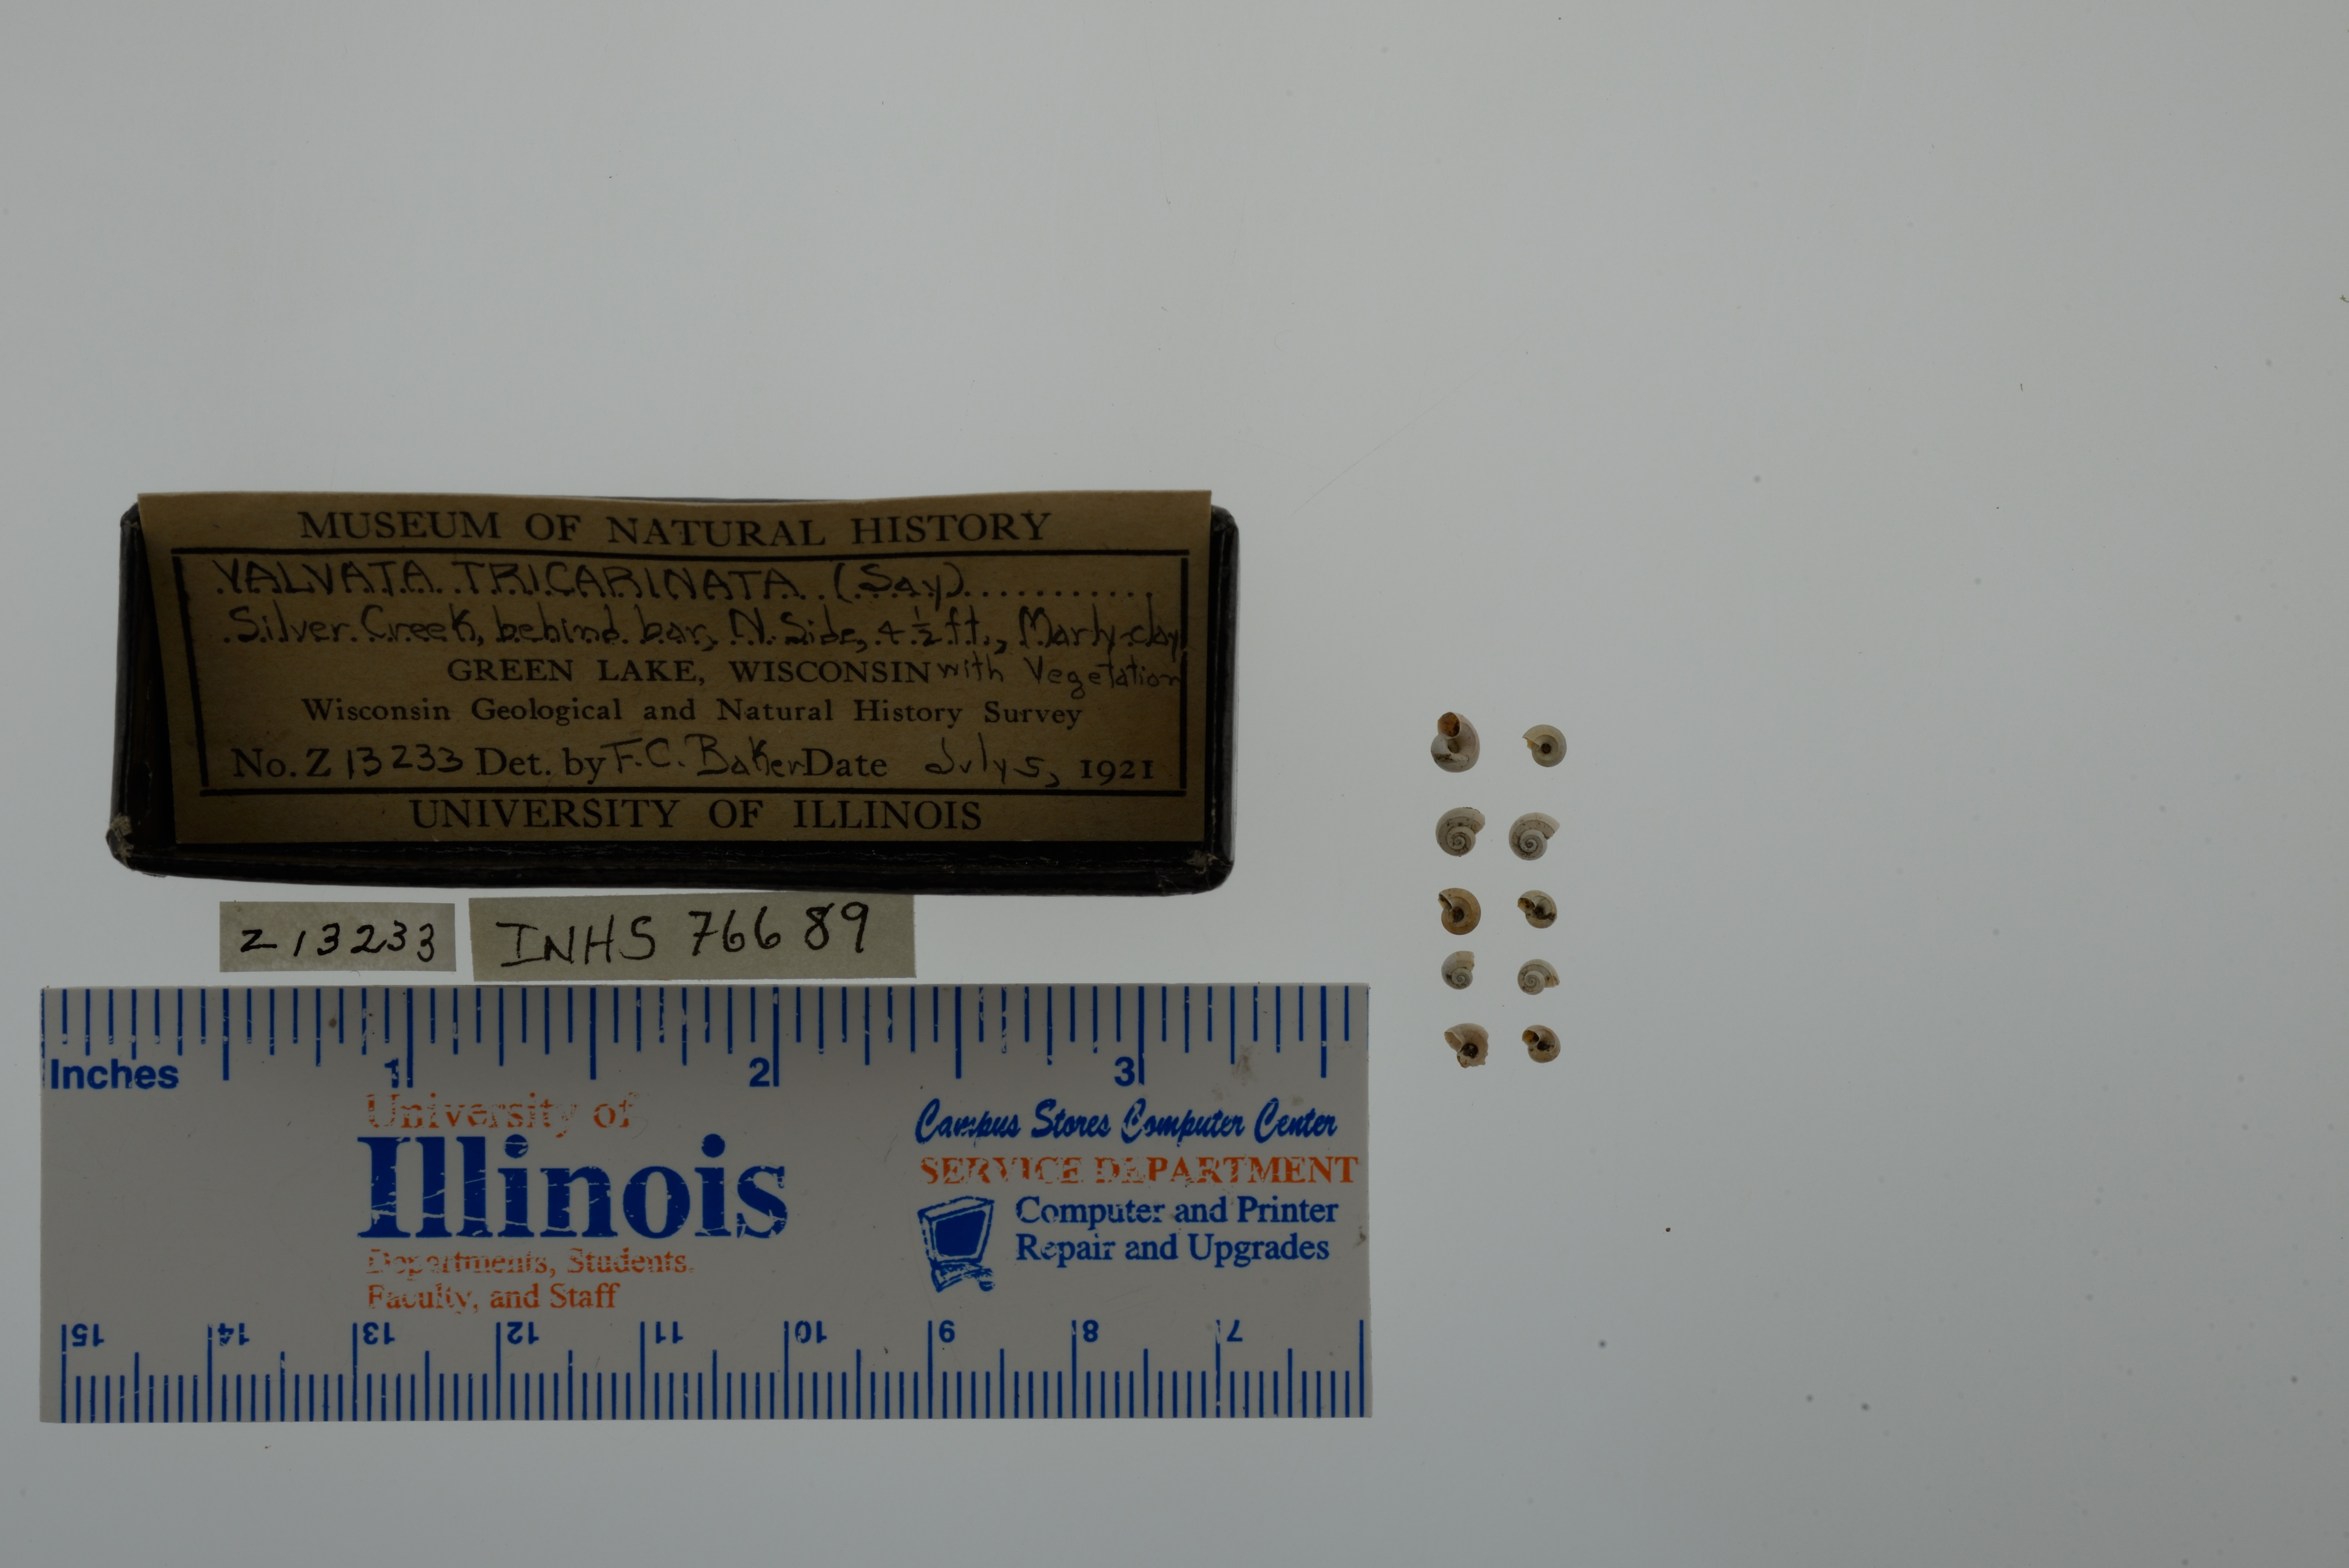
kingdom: Animalia
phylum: Mollusca
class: Gastropoda
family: Valvatidae
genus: Valvata
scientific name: Valvata tricarinata
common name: Three-ridge valvata
